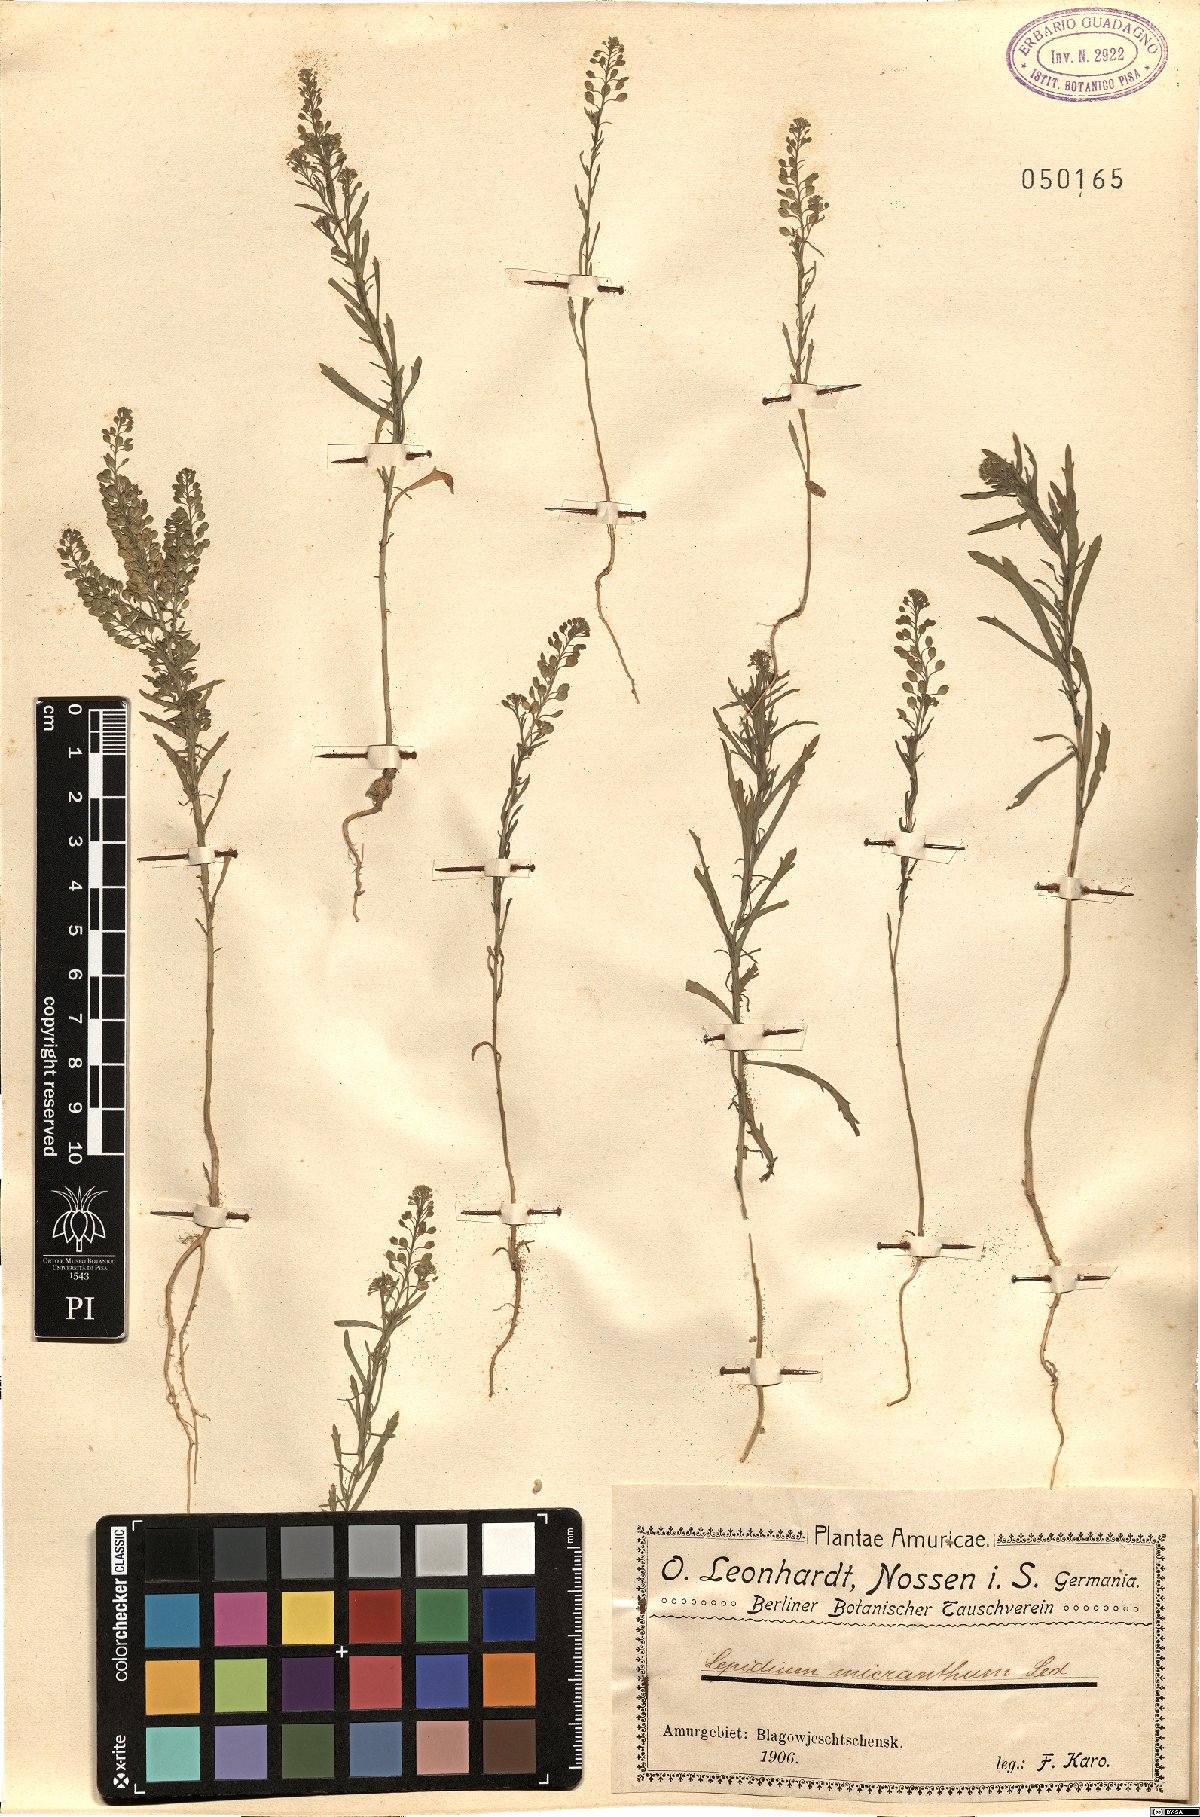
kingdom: Plantae
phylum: Tracheophyta
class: Magnoliopsida
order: Brassicales
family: Brassicaceae
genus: Lepidium
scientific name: Lepidium apetalum
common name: Pepperweed
